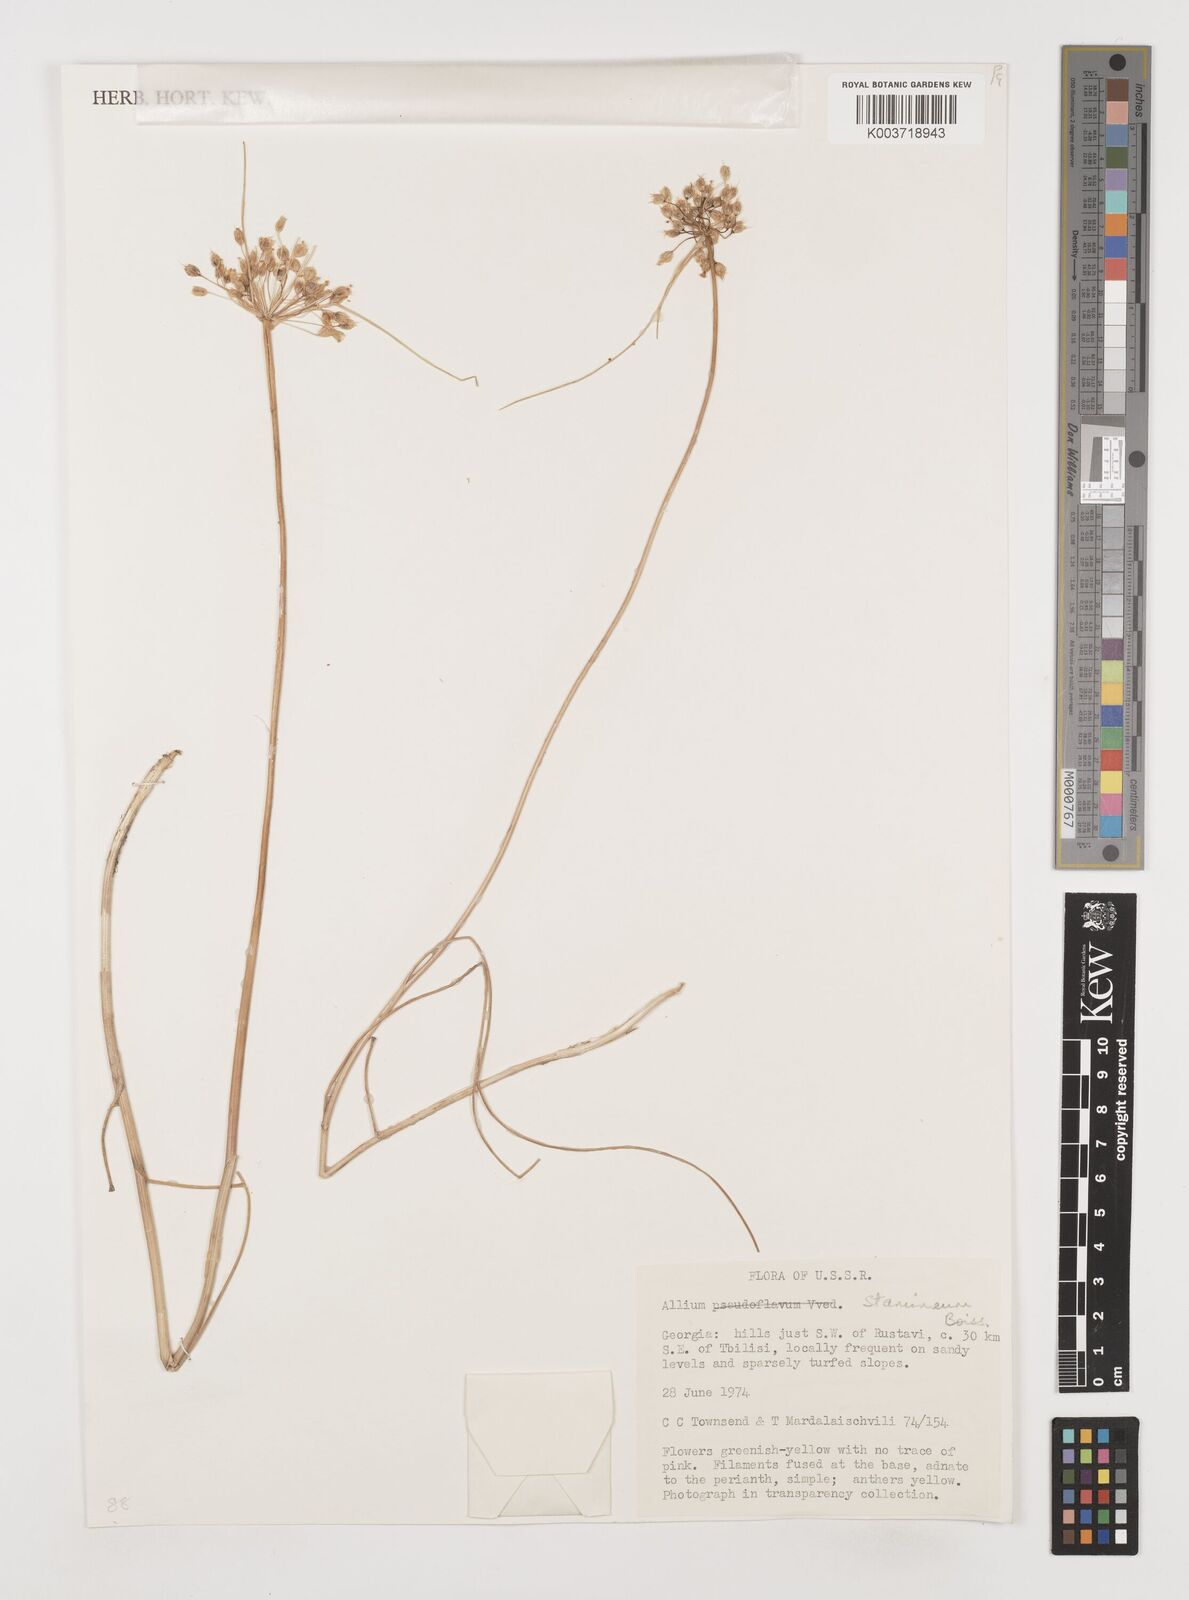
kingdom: Plantae
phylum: Tracheophyta
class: Liliopsida
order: Asparagales
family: Amaryllidaceae
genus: Allium
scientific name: Allium stamineum
